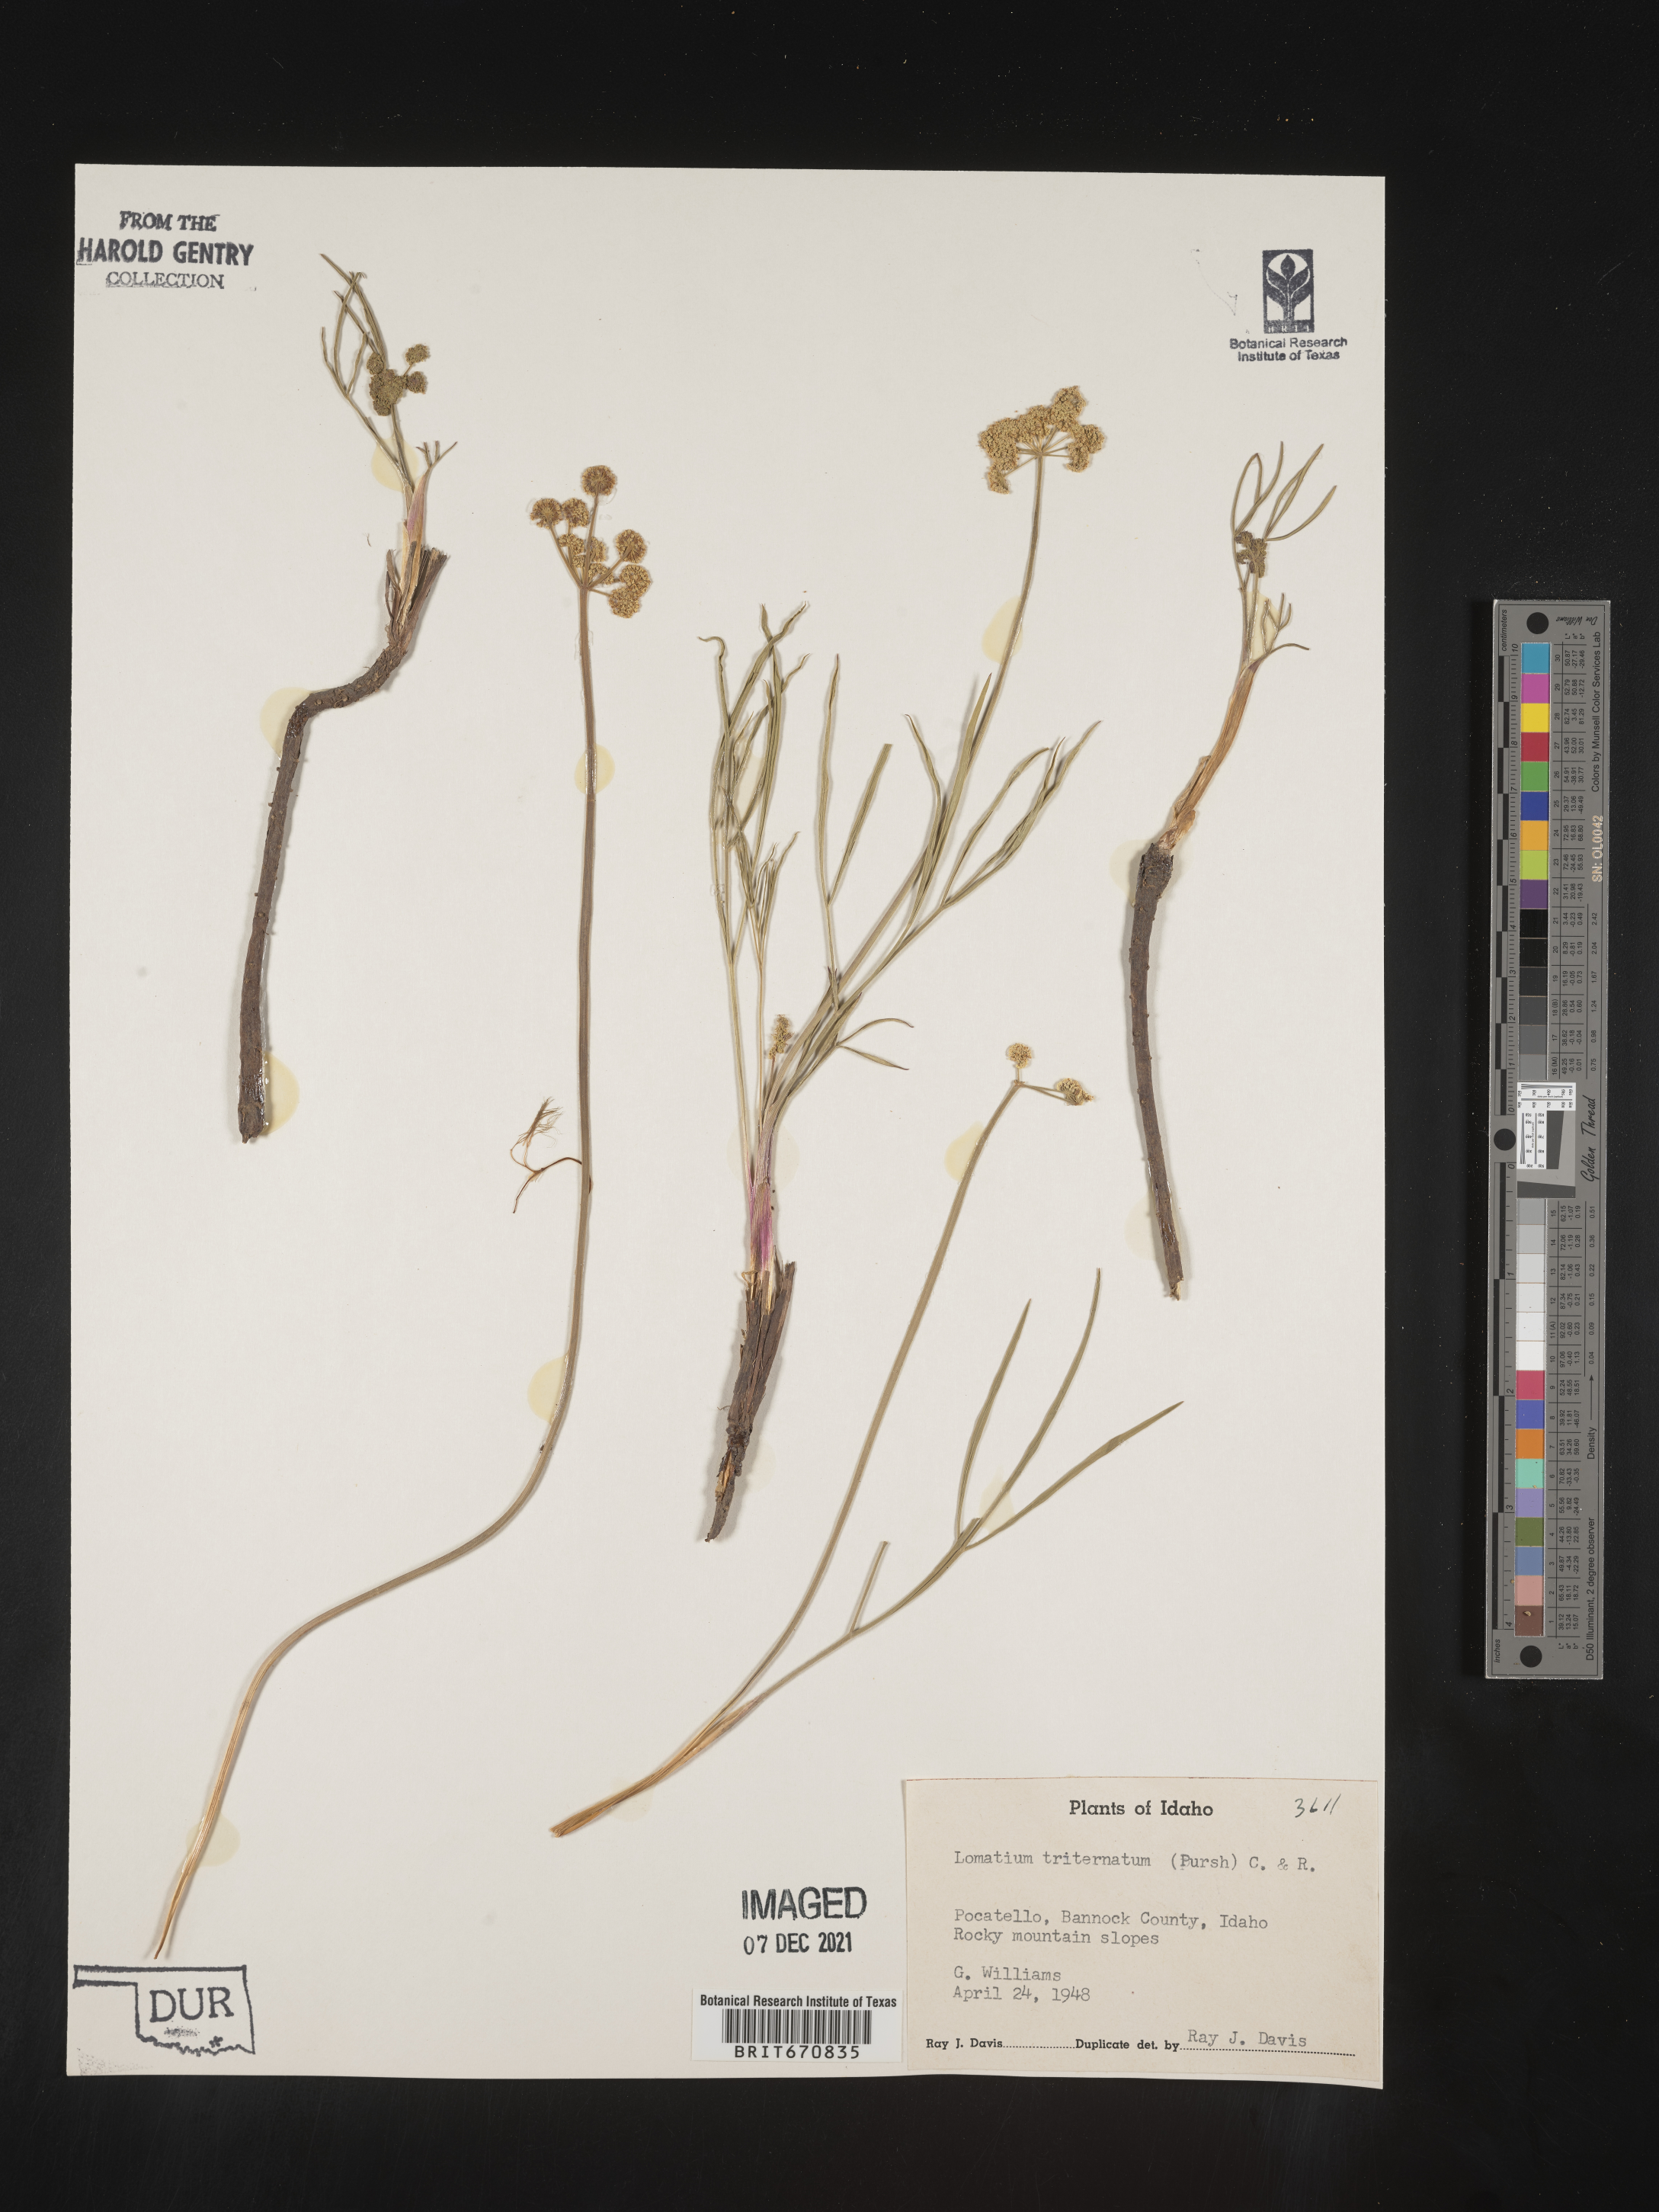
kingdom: Plantae
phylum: Tracheophyta
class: Magnoliopsida
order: Apiales
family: Apiaceae
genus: Lomatium
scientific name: Lomatium triternatum
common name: Ternate lomatium
